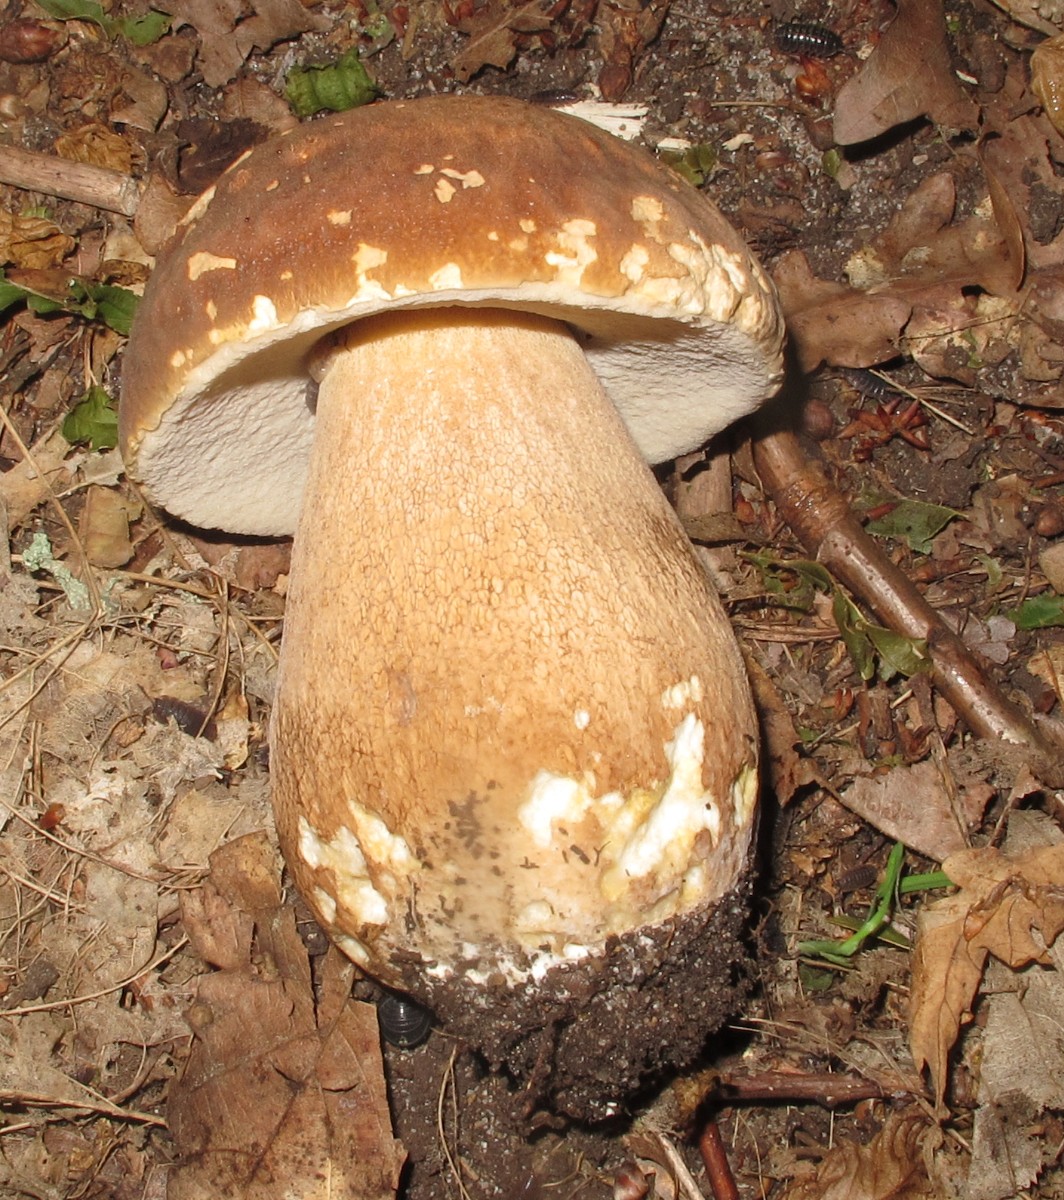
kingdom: Fungi
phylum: Basidiomycota
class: Agaricomycetes
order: Boletales
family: Boletaceae
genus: Boletus
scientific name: Boletus reticulatus
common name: sommer-rørhat
